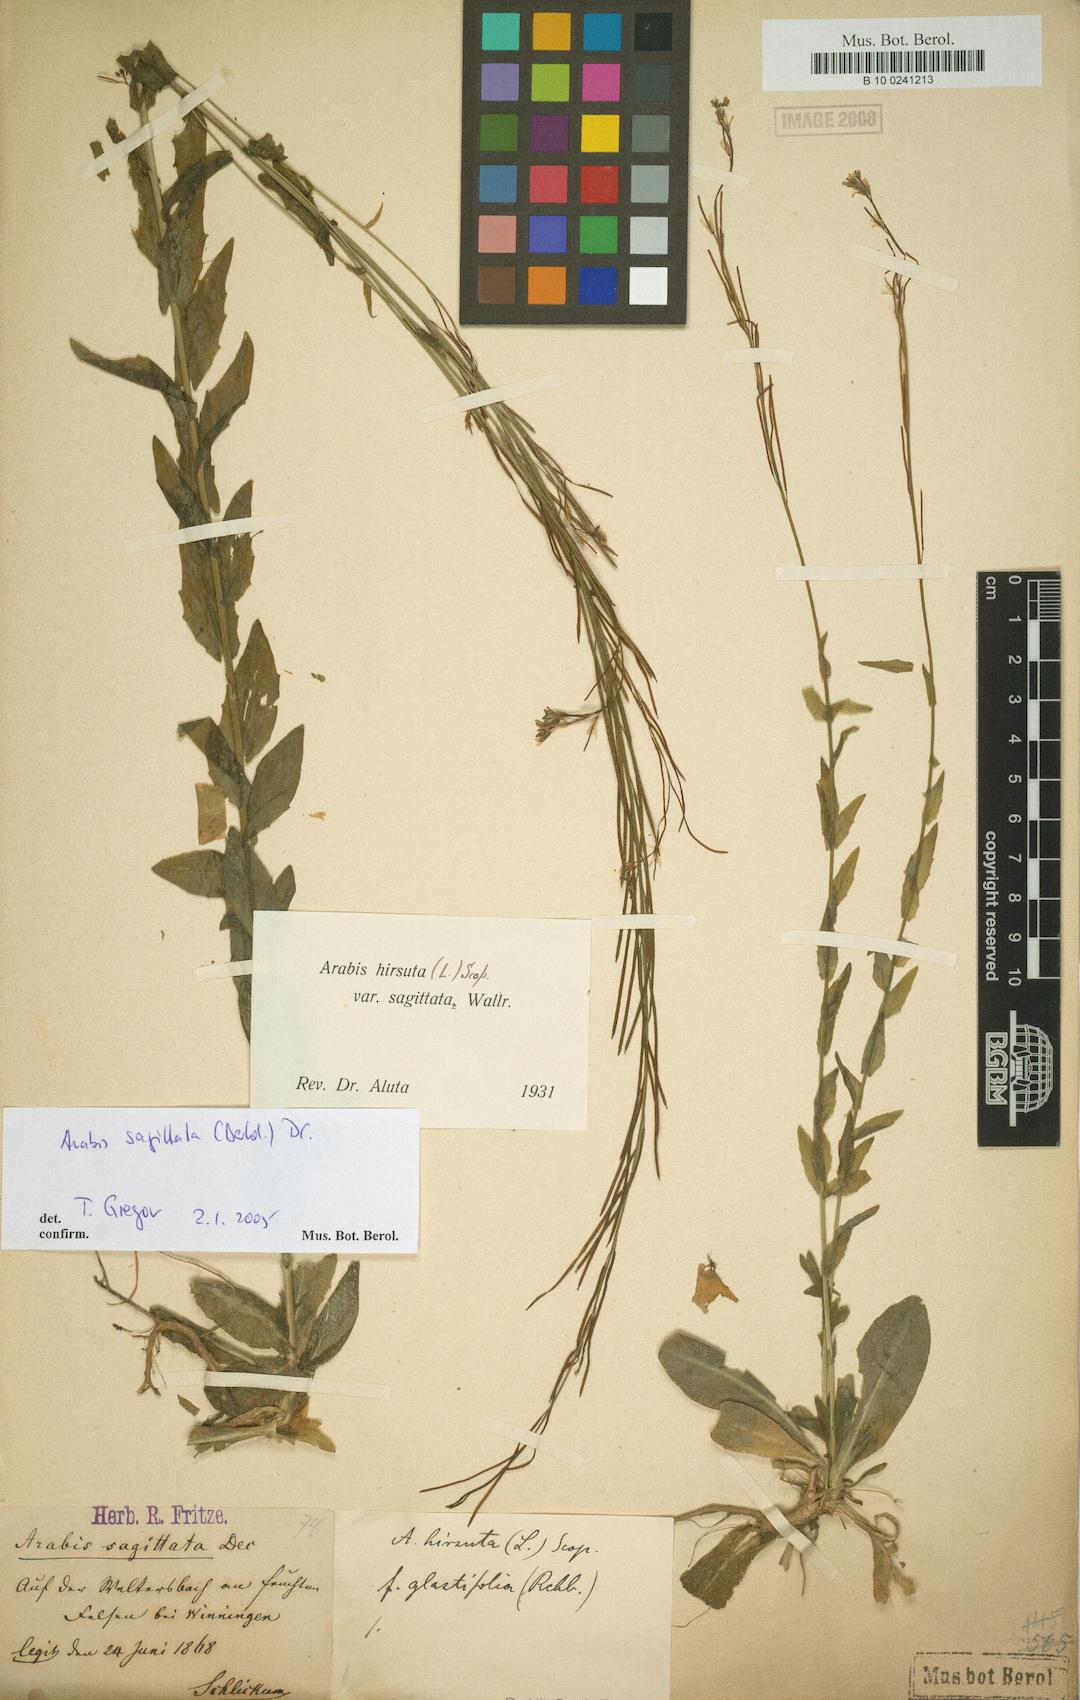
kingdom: Plantae
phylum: Tracheophyta
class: Magnoliopsida
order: Brassicales
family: Brassicaceae
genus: Arabis
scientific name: Arabis sagittata
